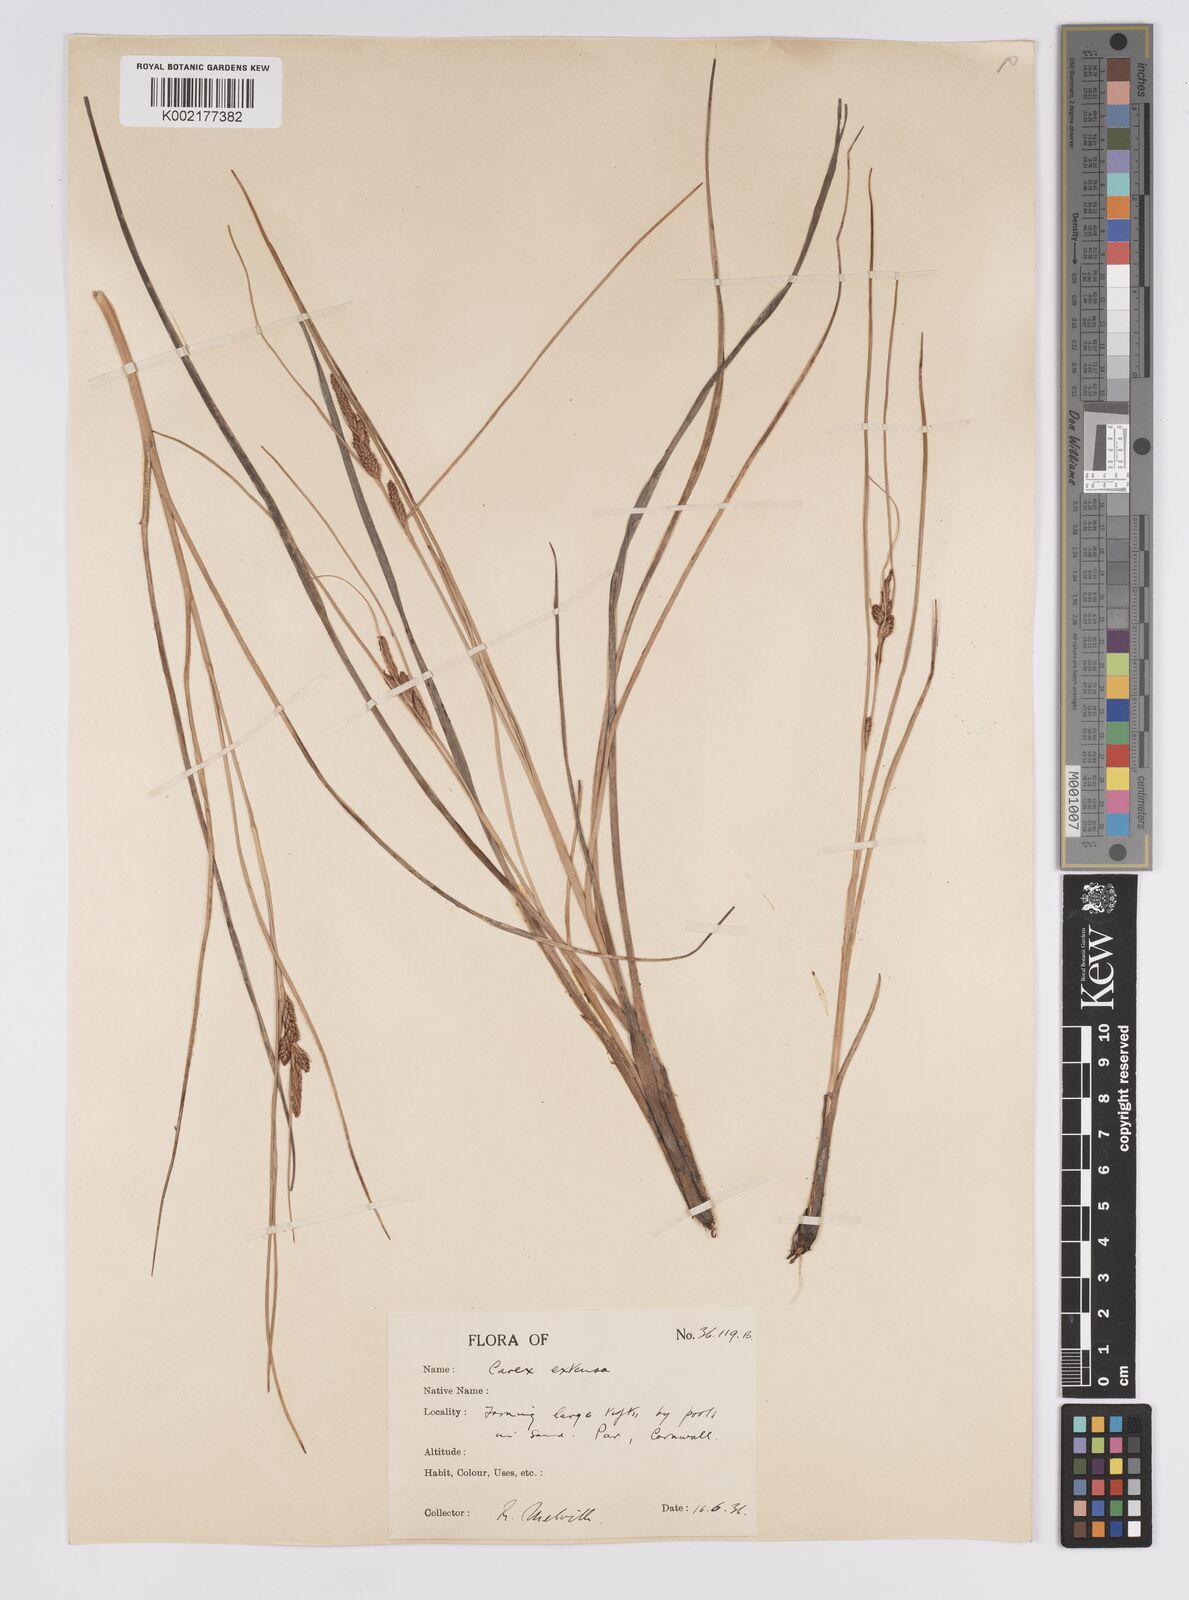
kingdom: Plantae
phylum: Tracheophyta
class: Liliopsida
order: Poales
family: Cyperaceae
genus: Carex
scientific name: Carex extensa
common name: Long-bracted sedge
